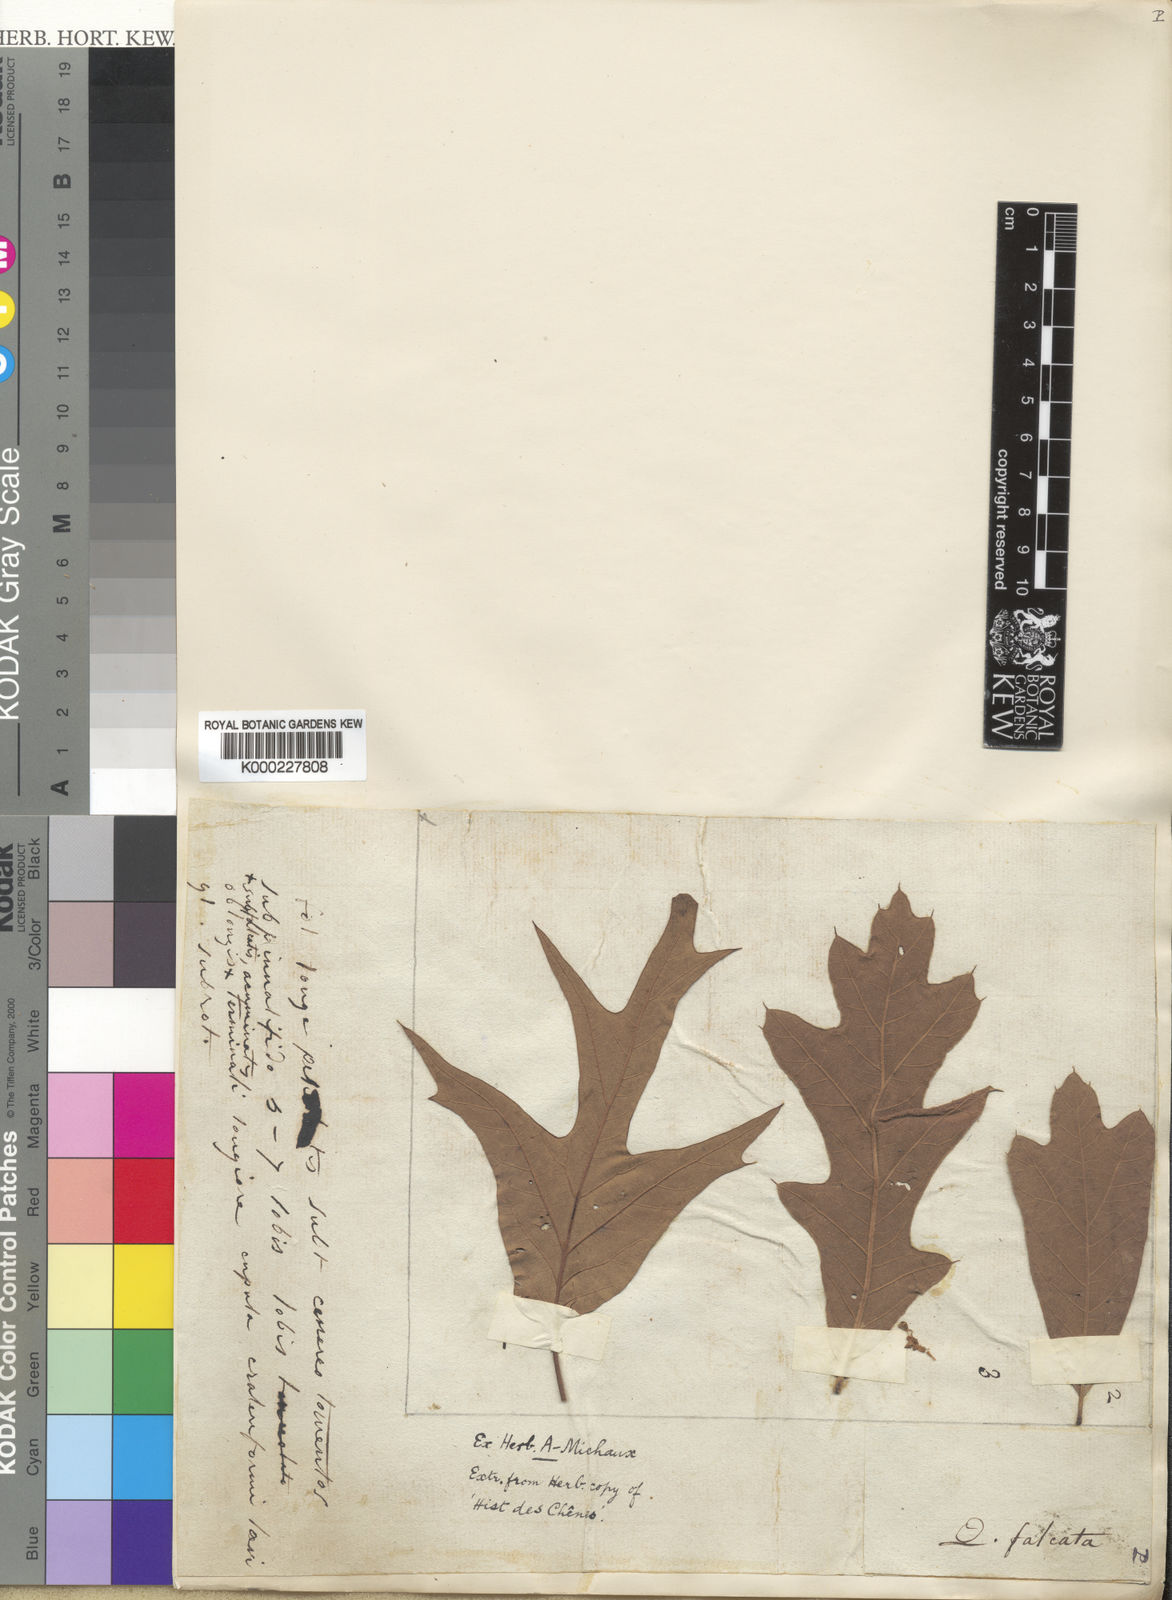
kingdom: Plantae
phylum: Tracheophyta
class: Magnoliopsida
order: Fagales
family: Fagaceae
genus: Quercus
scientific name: Quercus falcata
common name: Southern red oak
